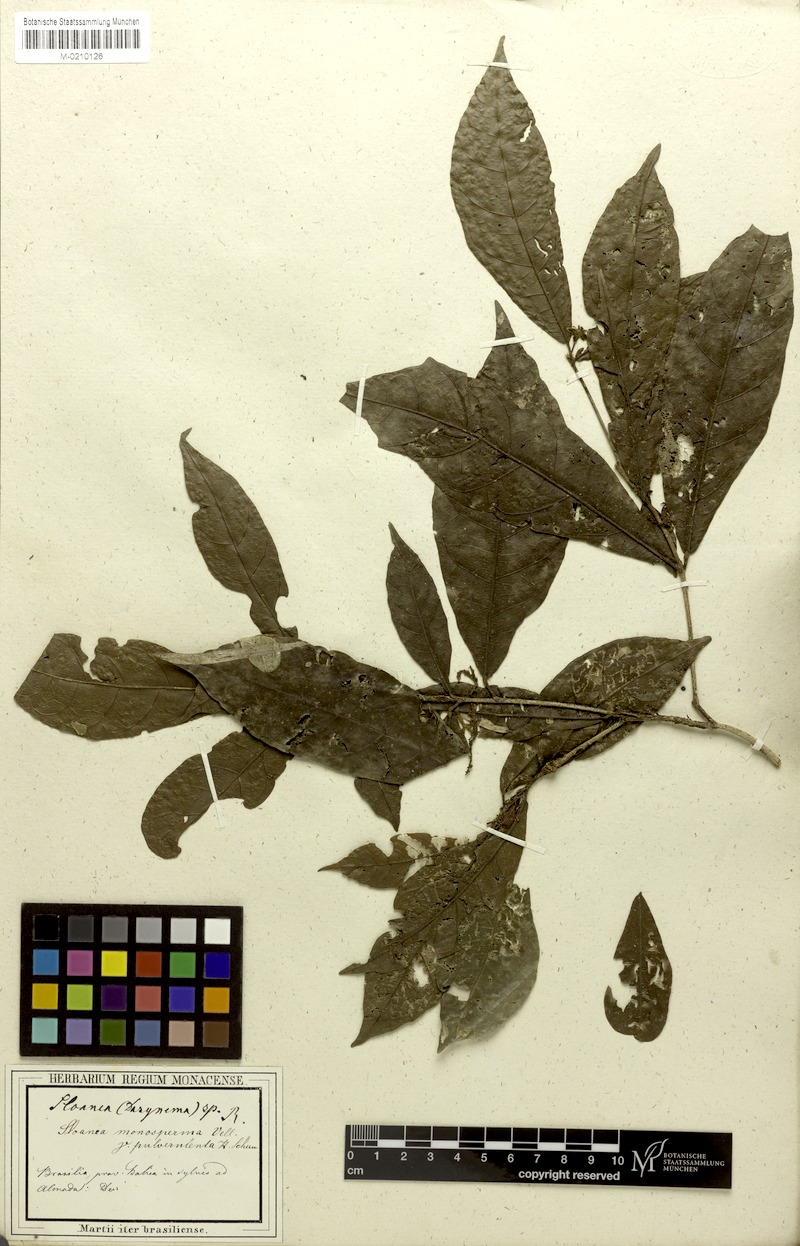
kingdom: Plantae
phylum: Tracheophyta
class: Magnoliopsida
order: Oxalidales
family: Elaeocarpaceae
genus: Sloanea
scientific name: Sloanea hirsuta
